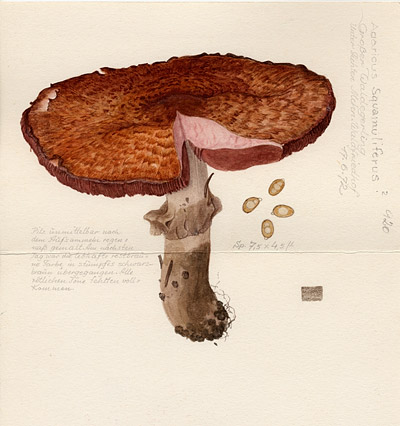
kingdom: Fungi
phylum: Basidiomycota
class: Agaricomycetes
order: Agaricales
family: Agaricaceae
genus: Agaricus
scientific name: Agaricus benesii
